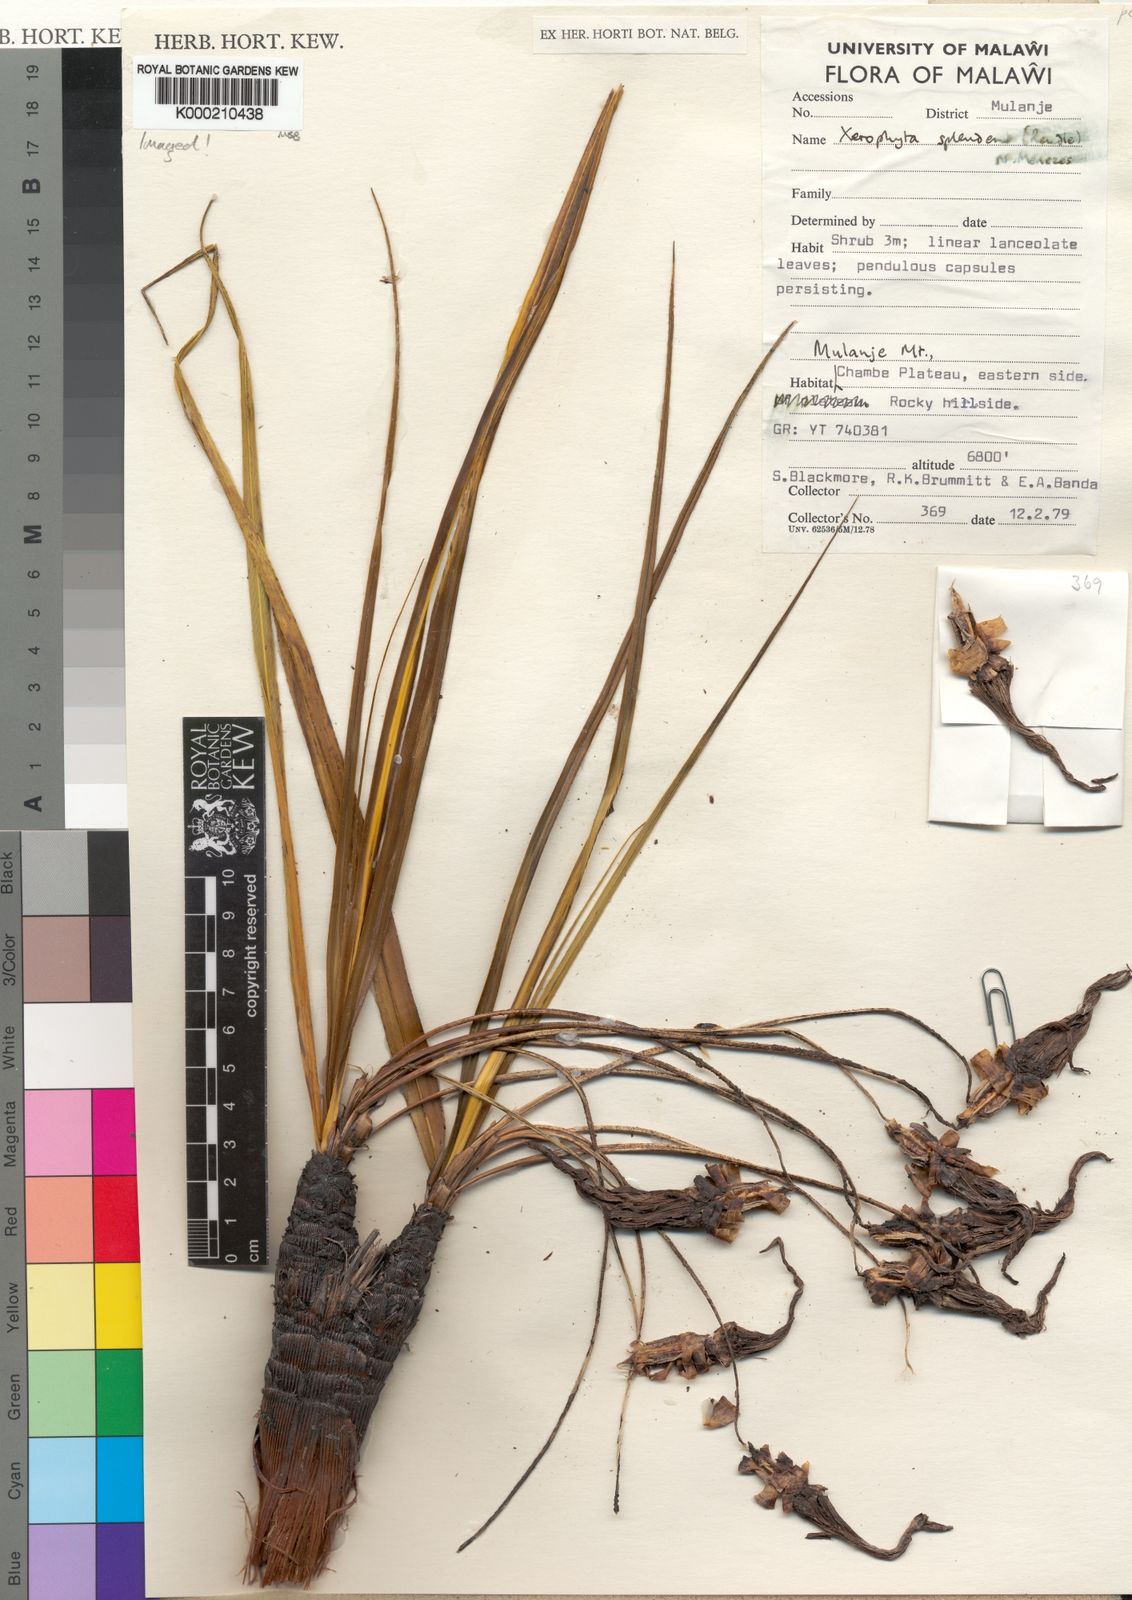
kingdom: Plantae
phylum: Tracheophyta
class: Liliopsida
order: Pandanales
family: Velloziaceae
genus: Xerophyta
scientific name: Xerophyta splendens
